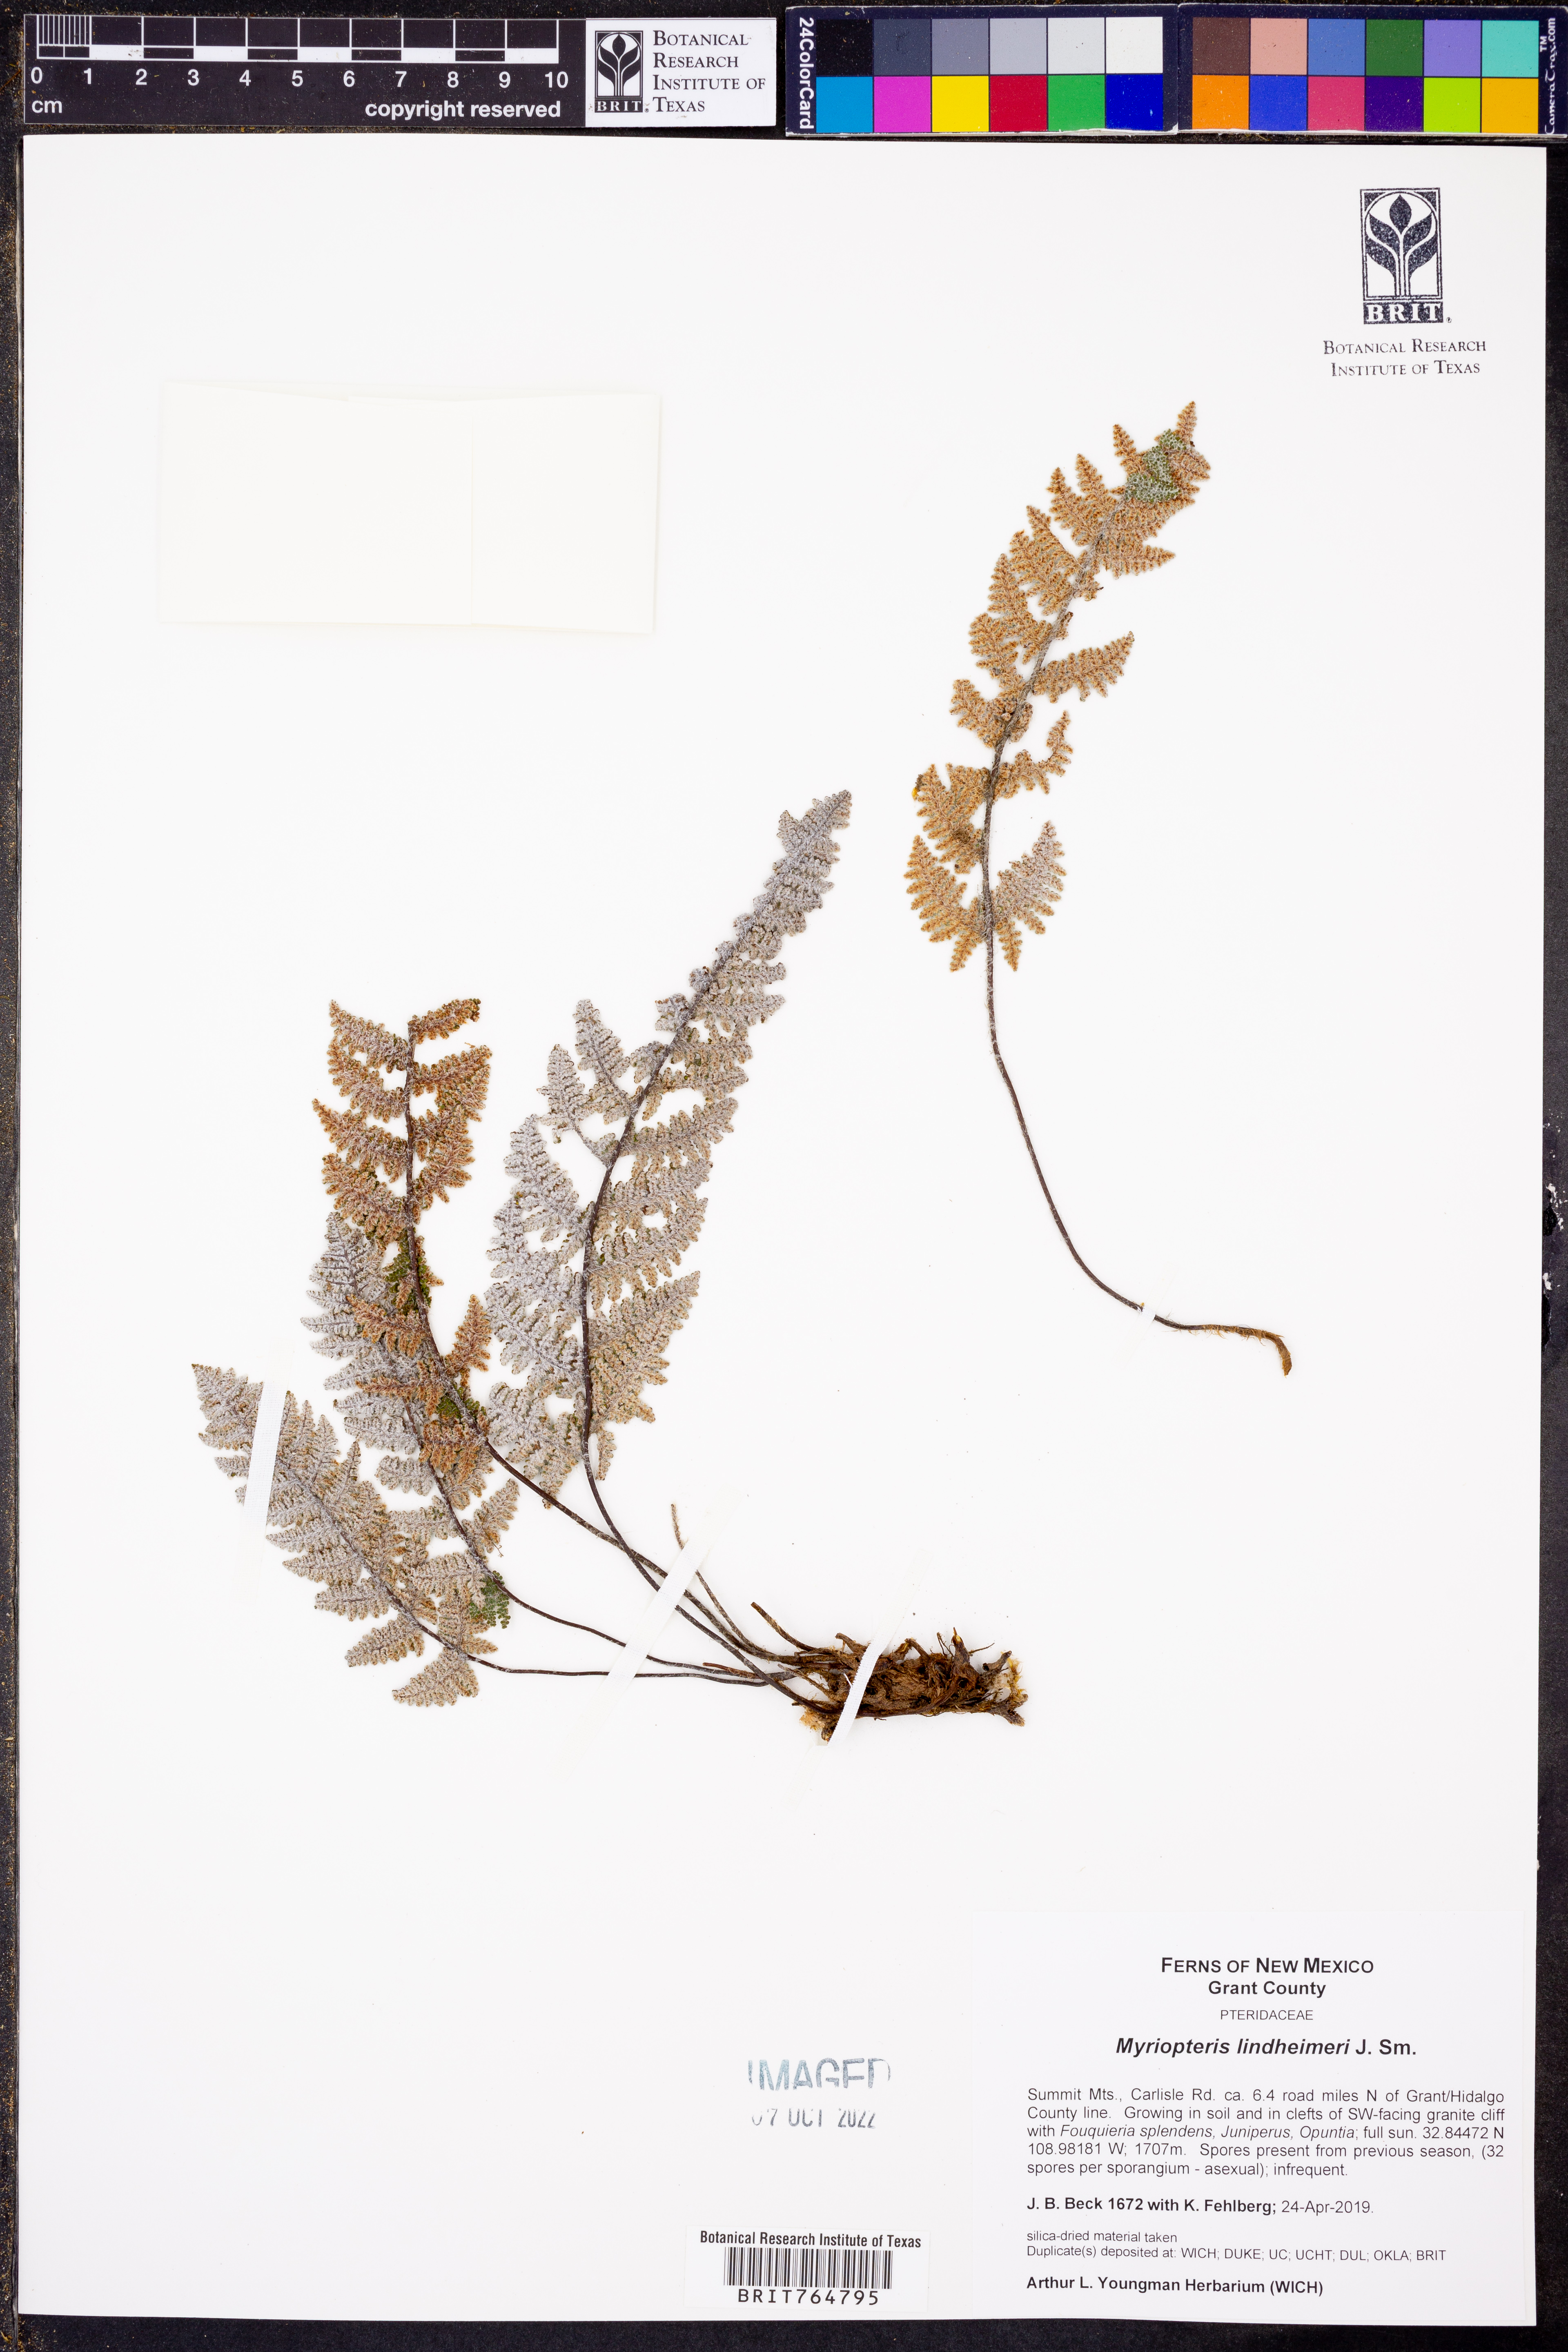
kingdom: Plantae
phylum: Tracheophyta
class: Polypodiopsida
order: Polypodiales
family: Pteridaceae
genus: Myriopteris
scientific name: Myriopteris lindheimeri
